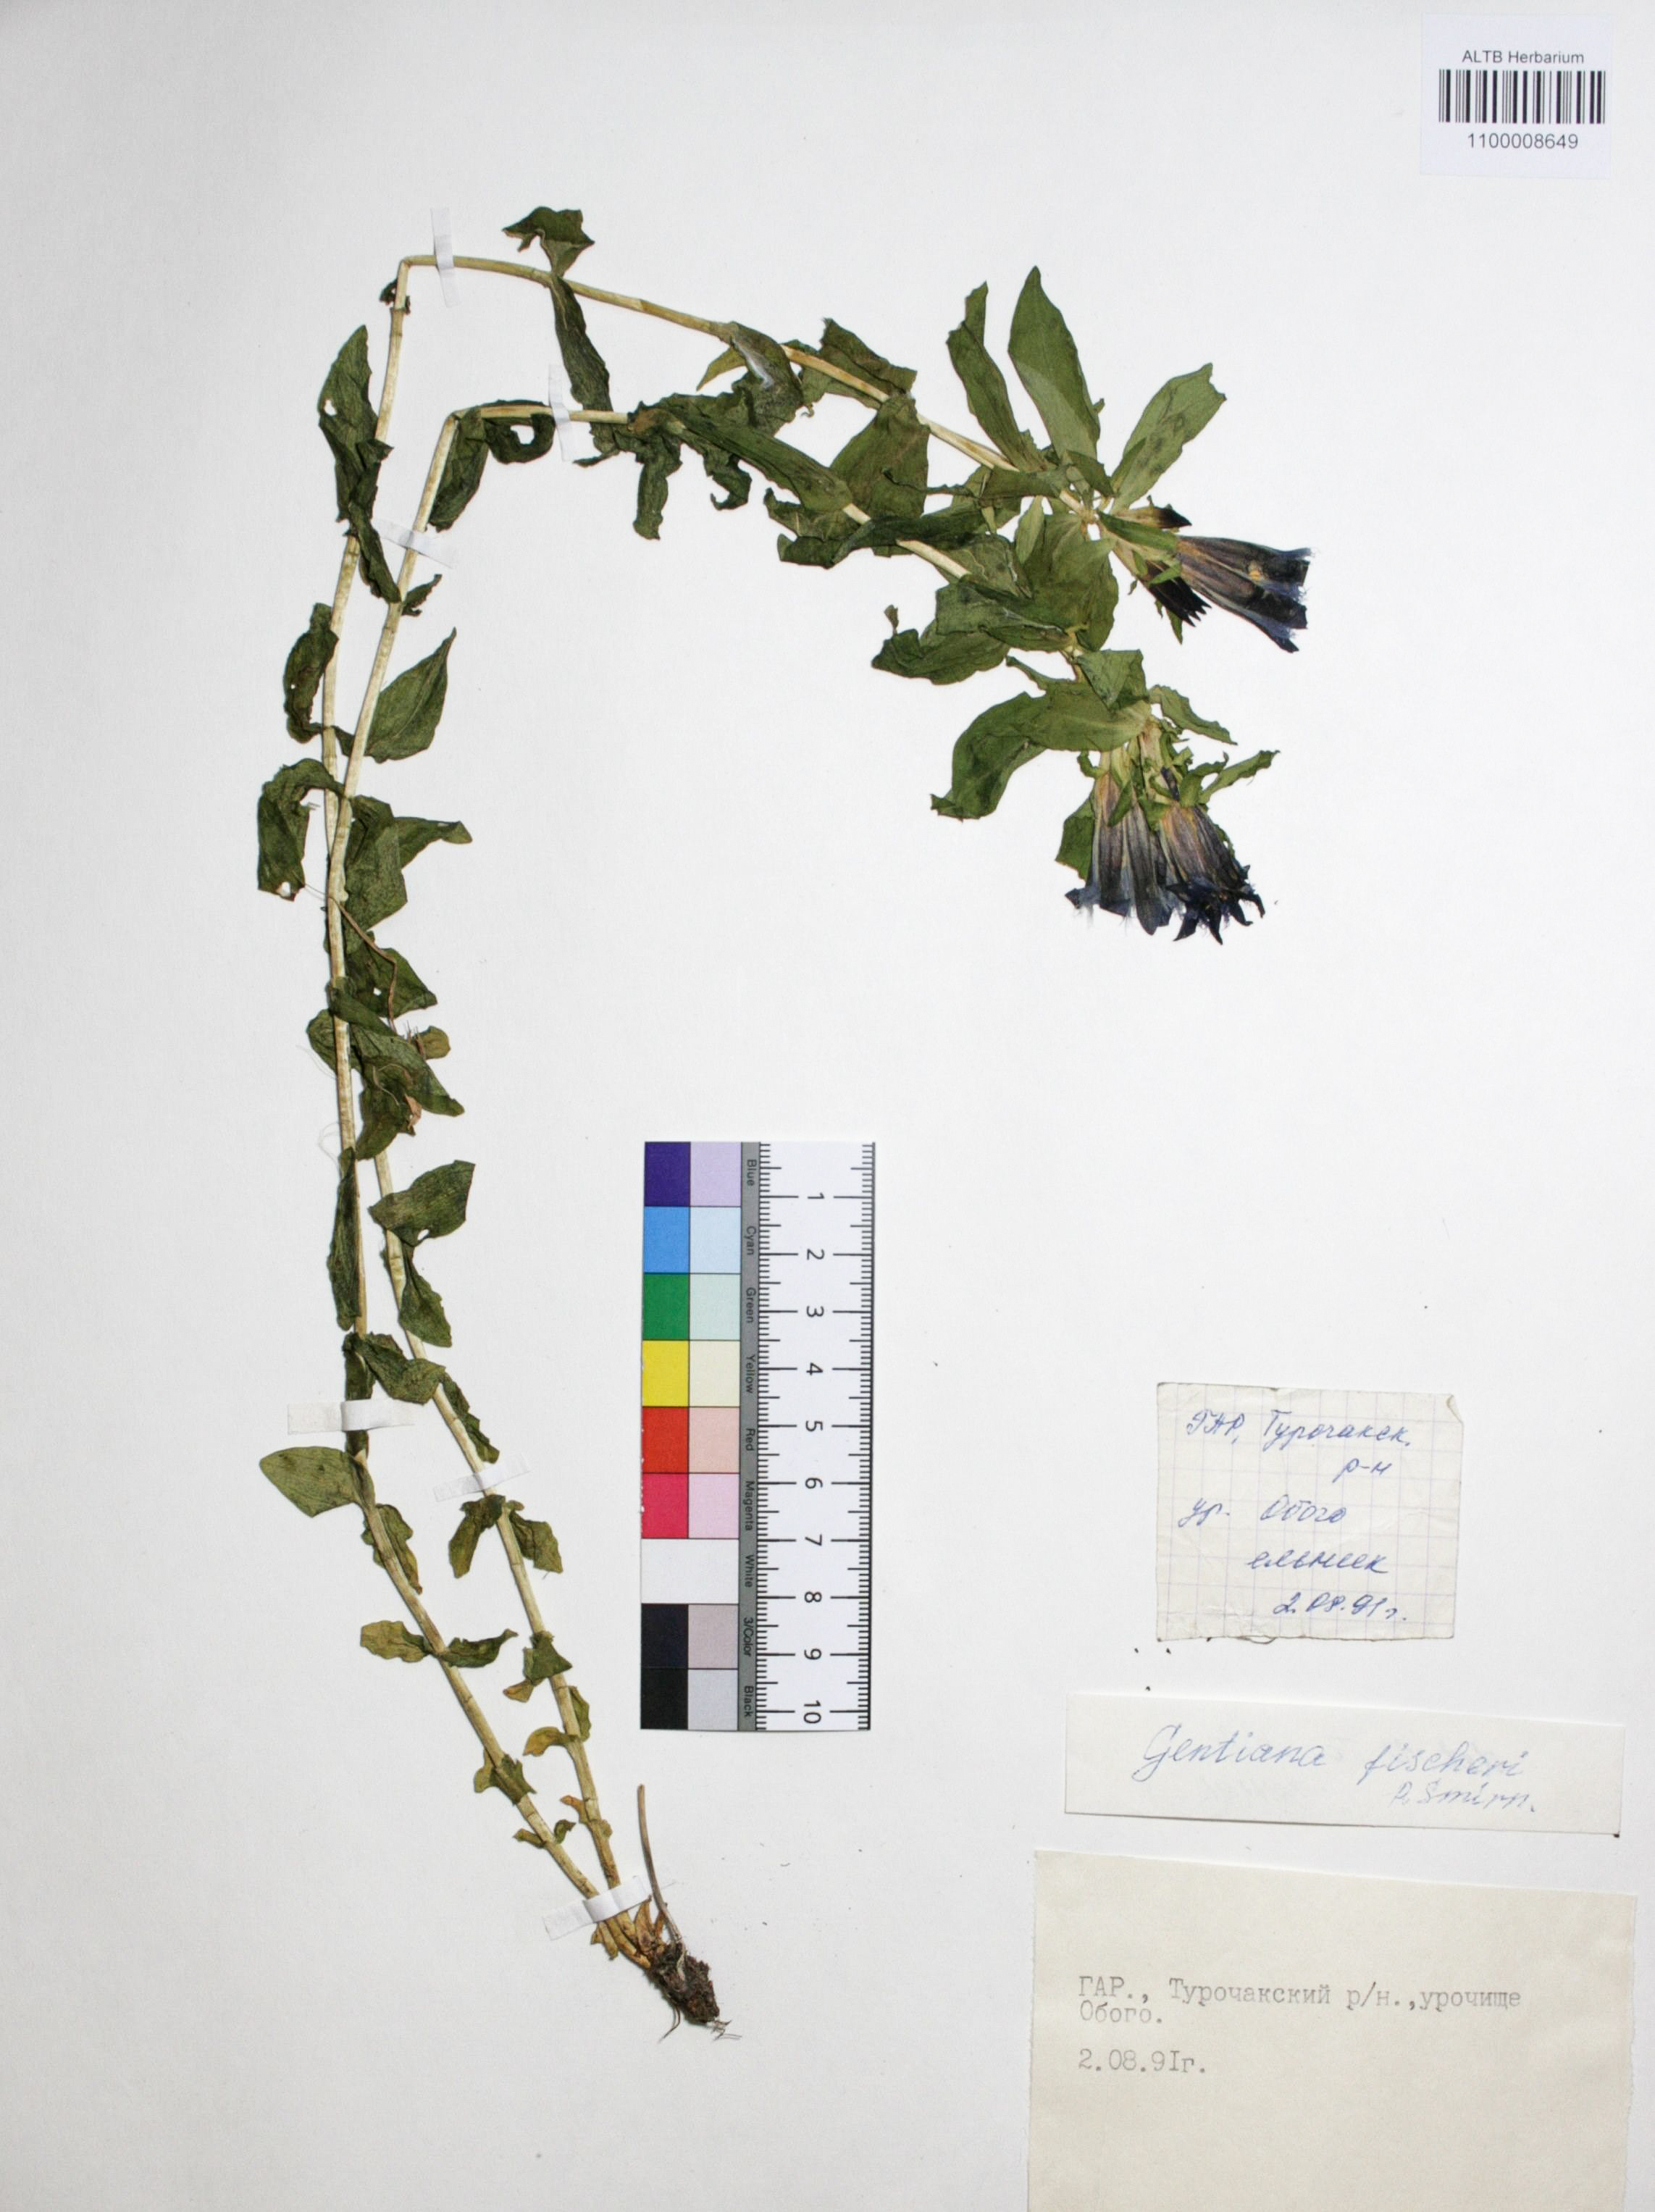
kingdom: Plantae
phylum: Tracheophyta
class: Magnoliopsida
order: Gentianales
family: Gentianaceae
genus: Gentiana
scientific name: Gentiana dschungarica
